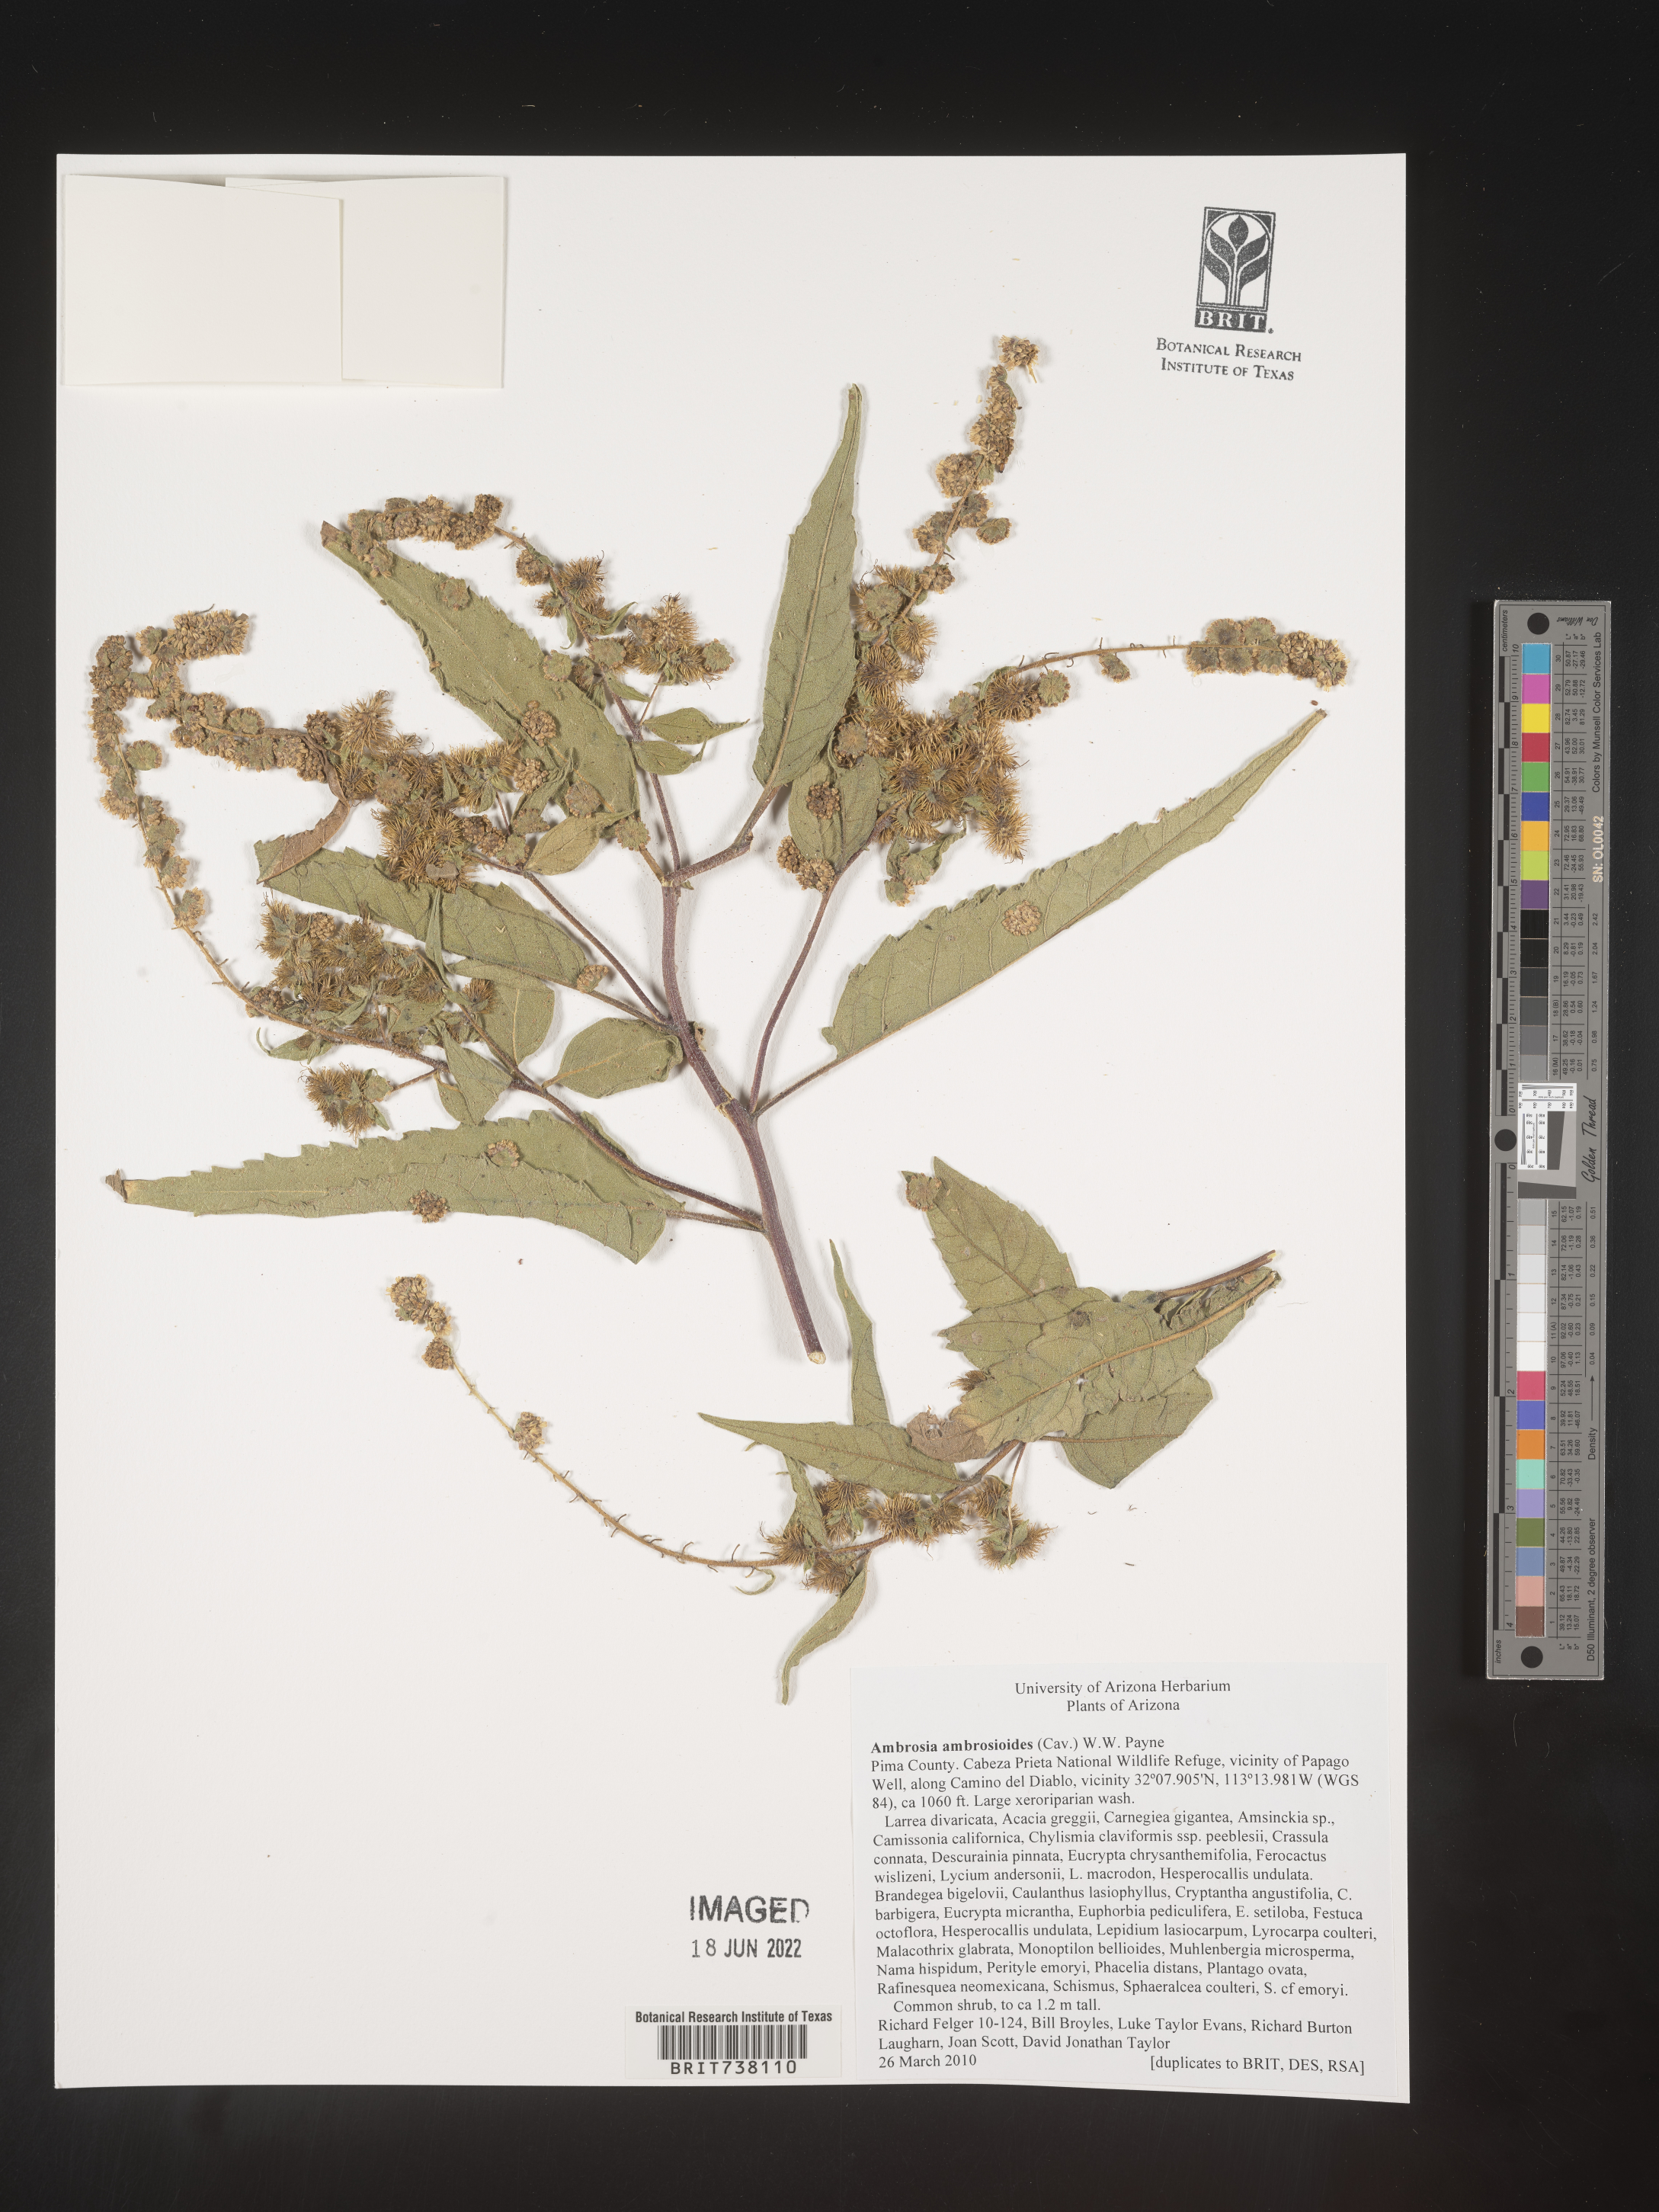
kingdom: Plantae
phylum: Tracheophyta
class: Magnoliopsida
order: Asterales
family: Asteraceae
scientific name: Asteraceae
